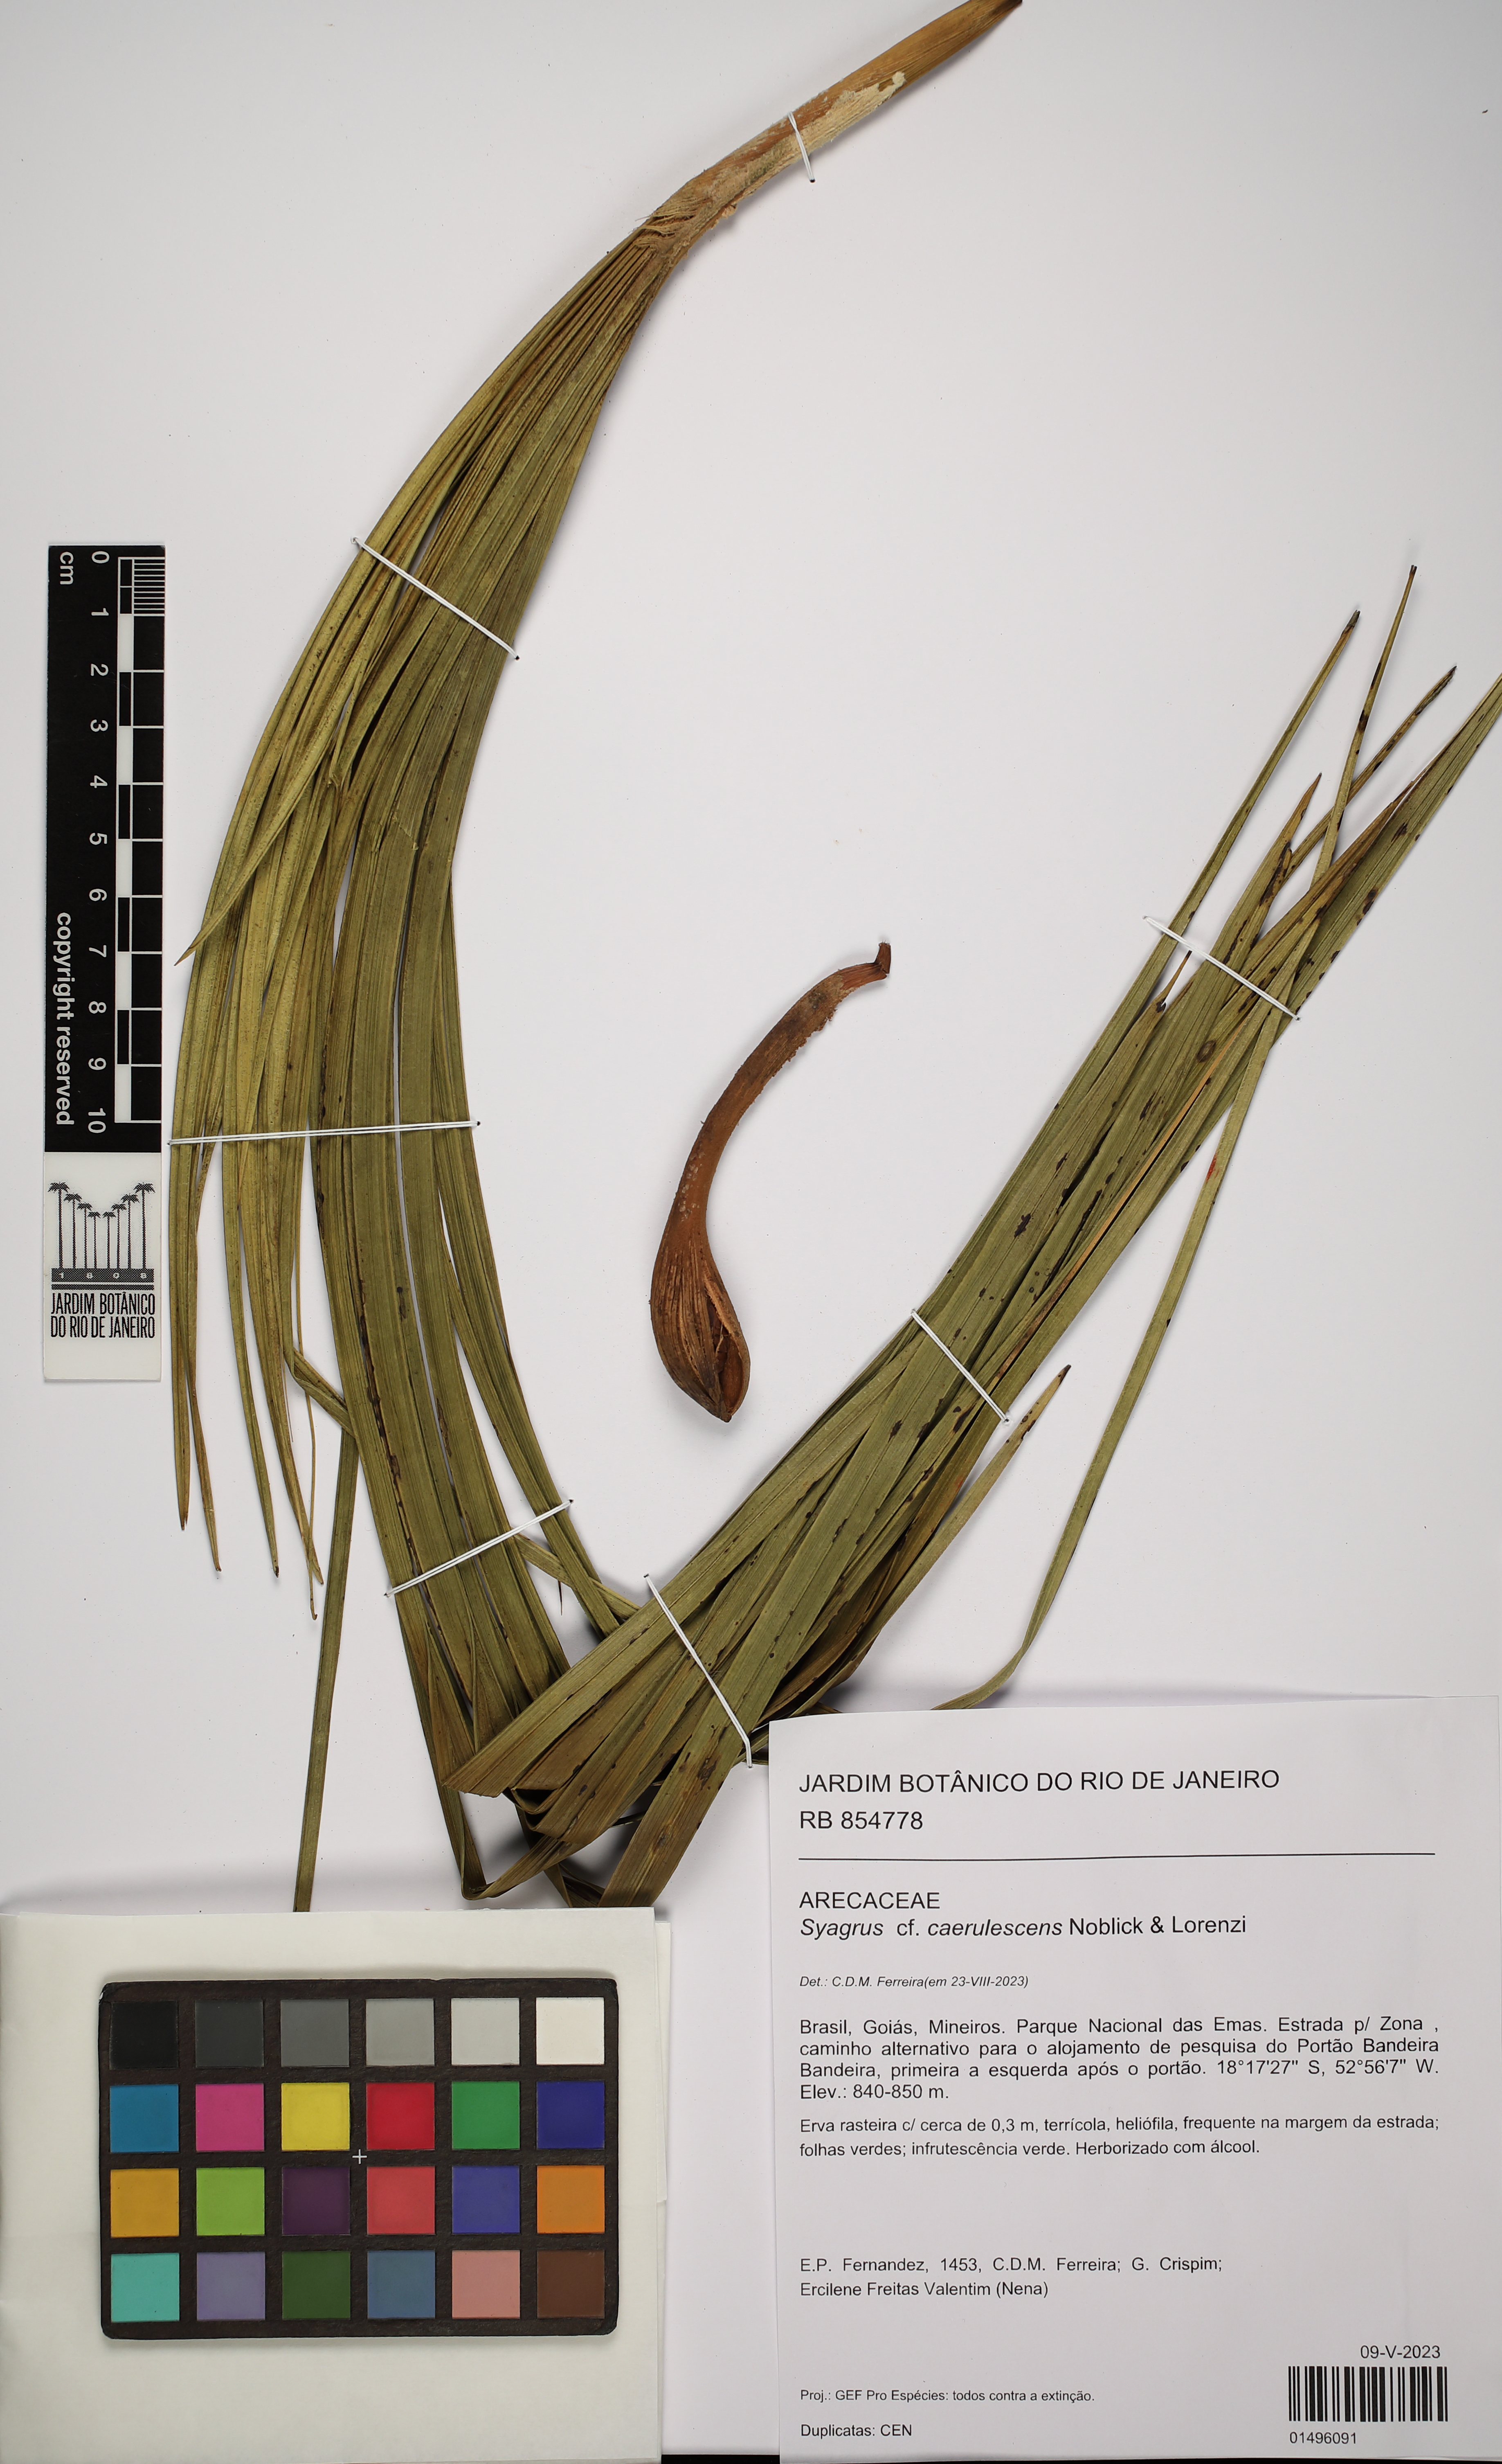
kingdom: Plantae
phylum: Tracheophyta
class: Liliopsida
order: Arecales
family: Arecaceae
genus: Syagrus
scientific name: Syagrus caerulescens
